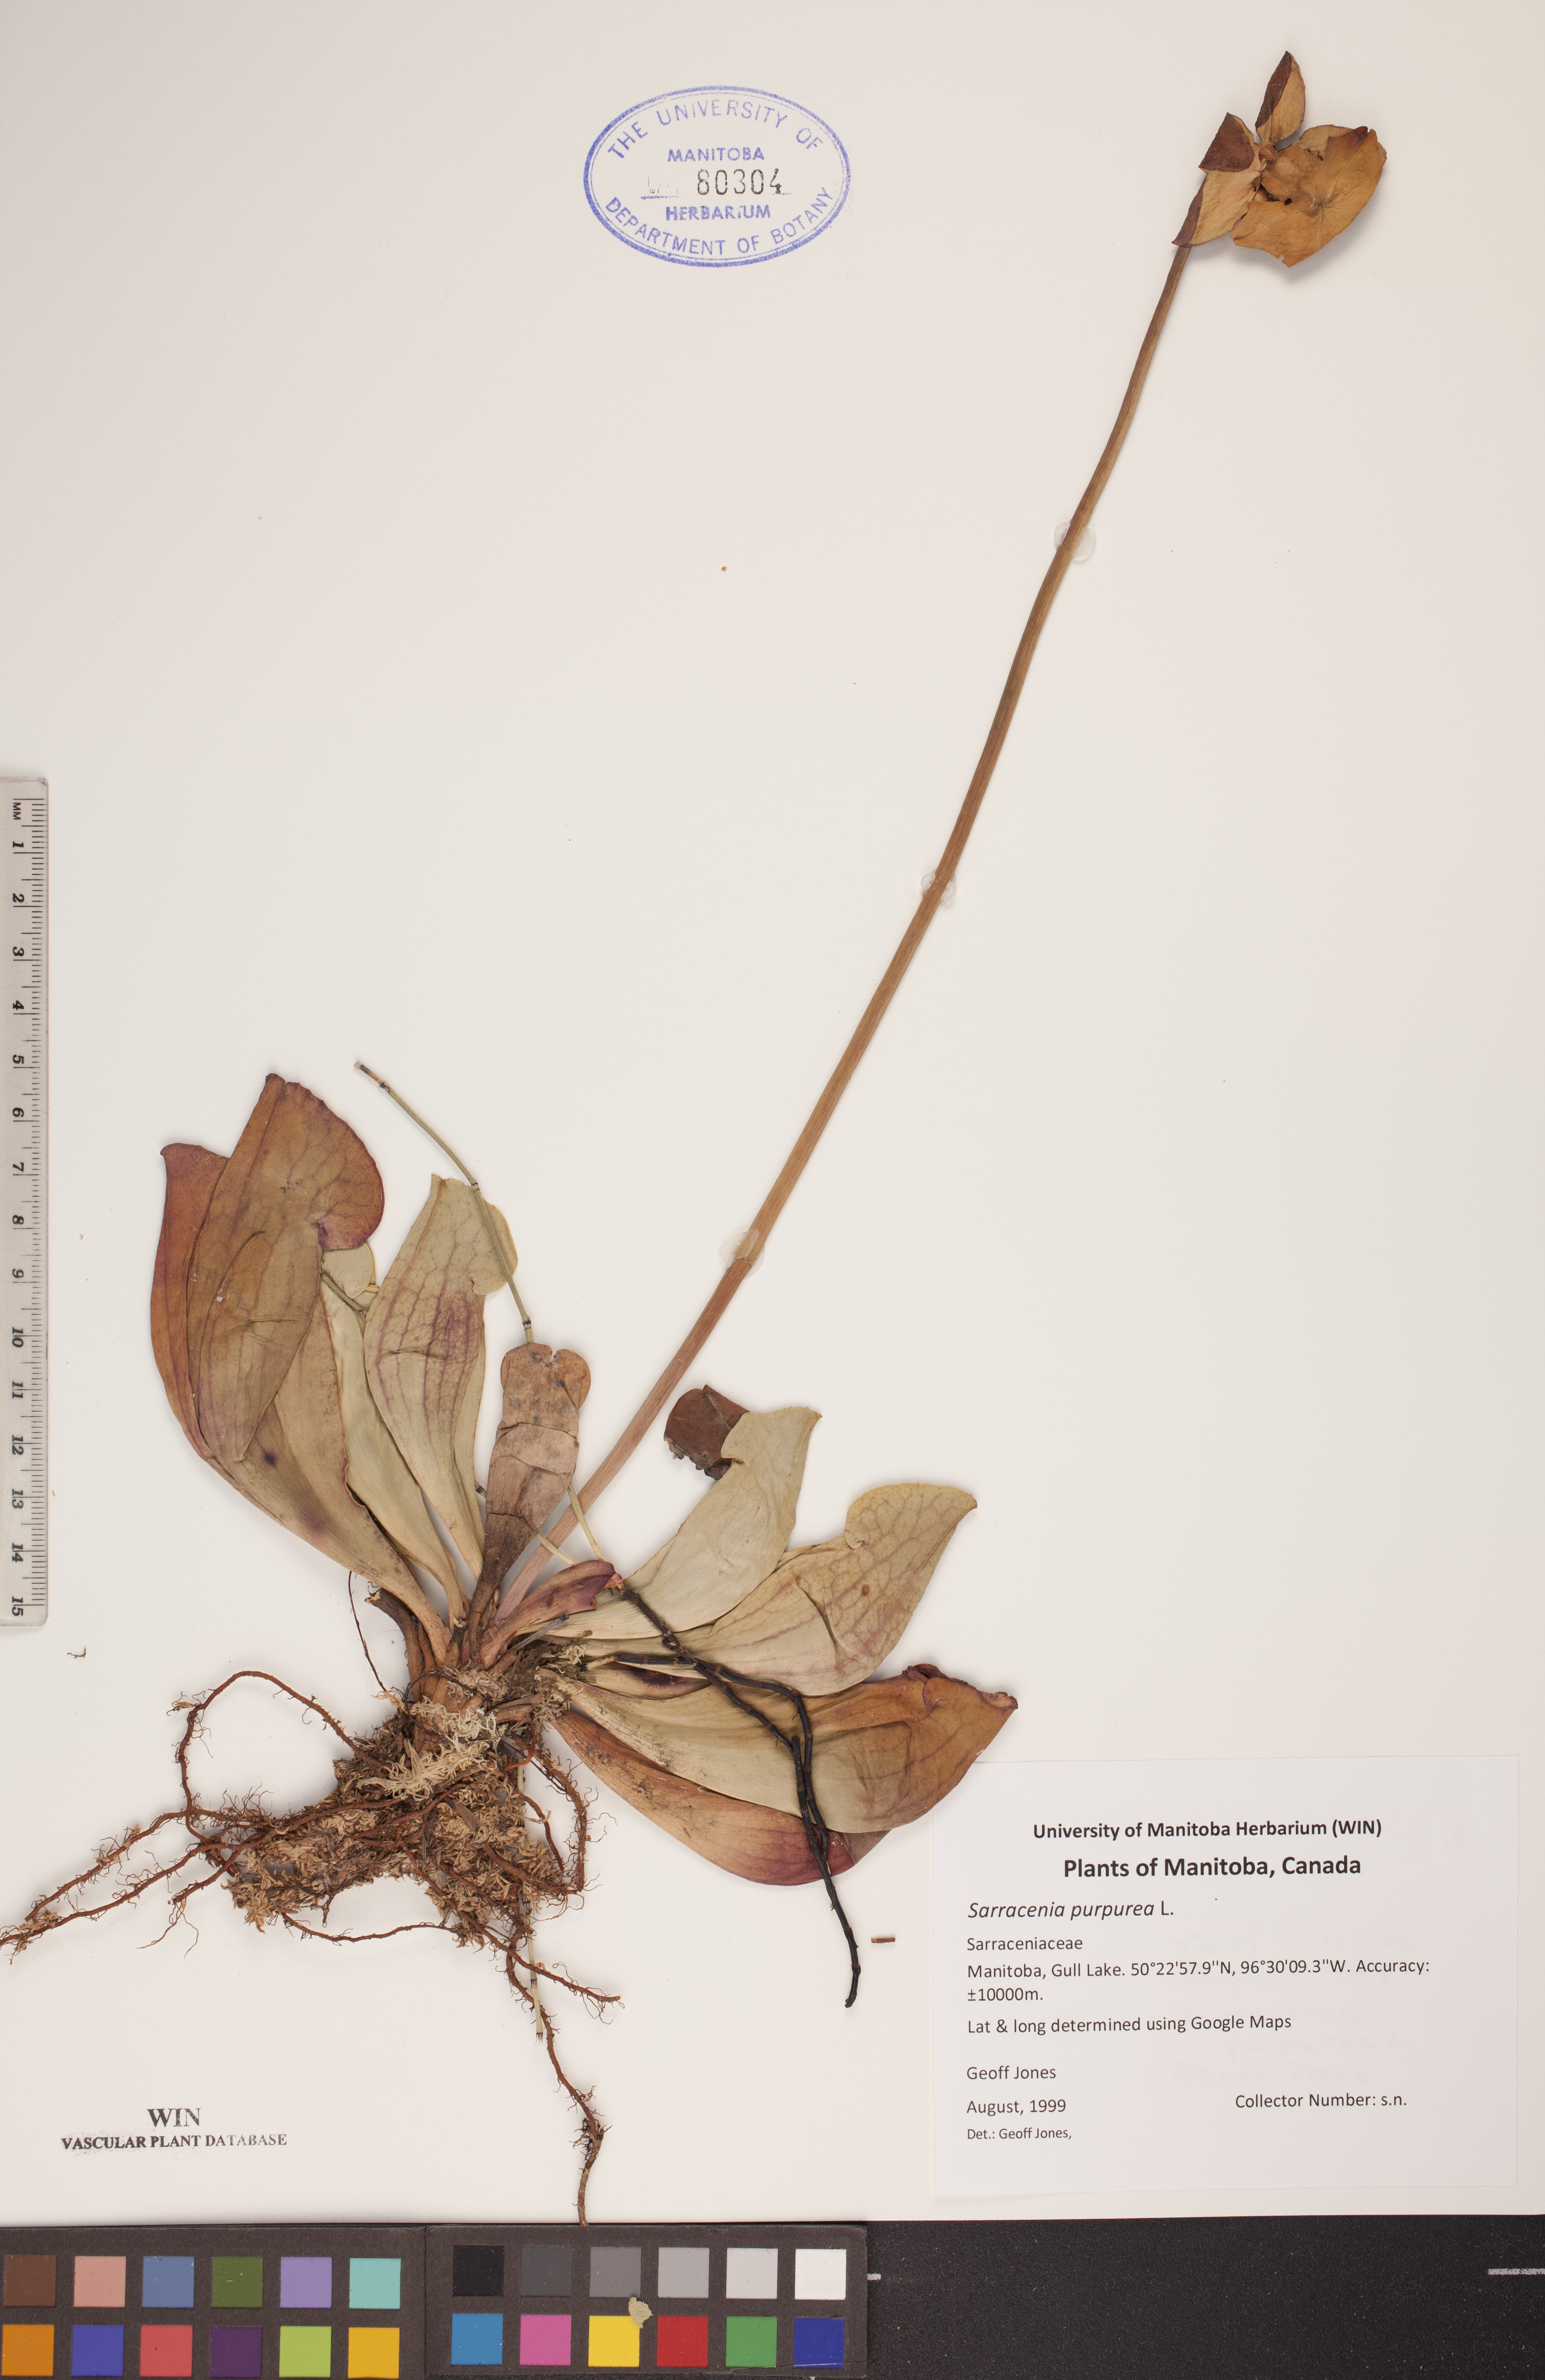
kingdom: Plantae
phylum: Tracheophyta
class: Magnoliopsida
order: Ericales
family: Sarraceniaceae
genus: Sarracenia
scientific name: Sarracenia purpurea
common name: Pitcherplant
